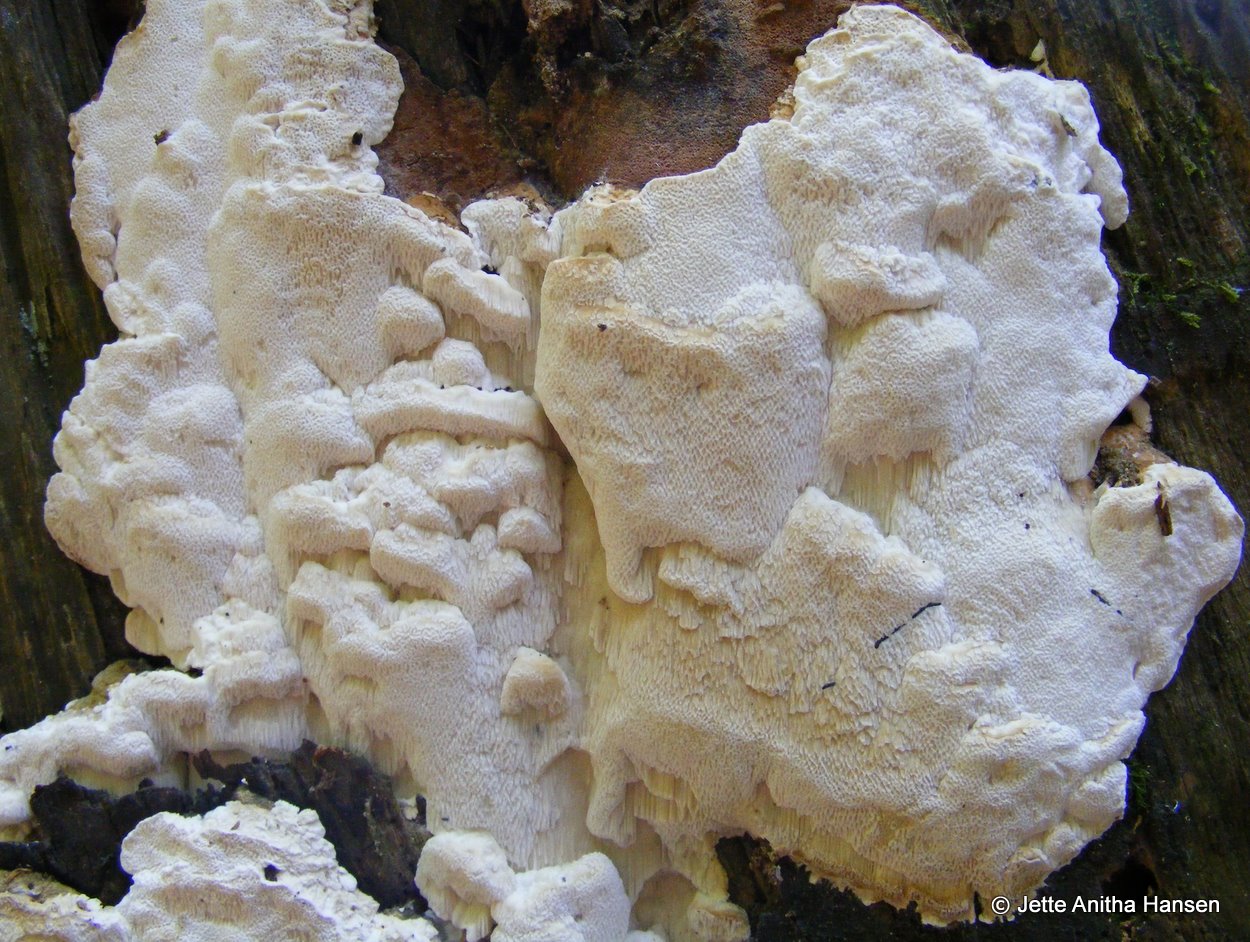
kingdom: Fungi
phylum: Basidiomycota
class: Agaricomycetes
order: Polyporales
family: Fomitopsidaceae
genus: Neoantrodia
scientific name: Neoantrodia serialis
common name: række-sejporesvamp
